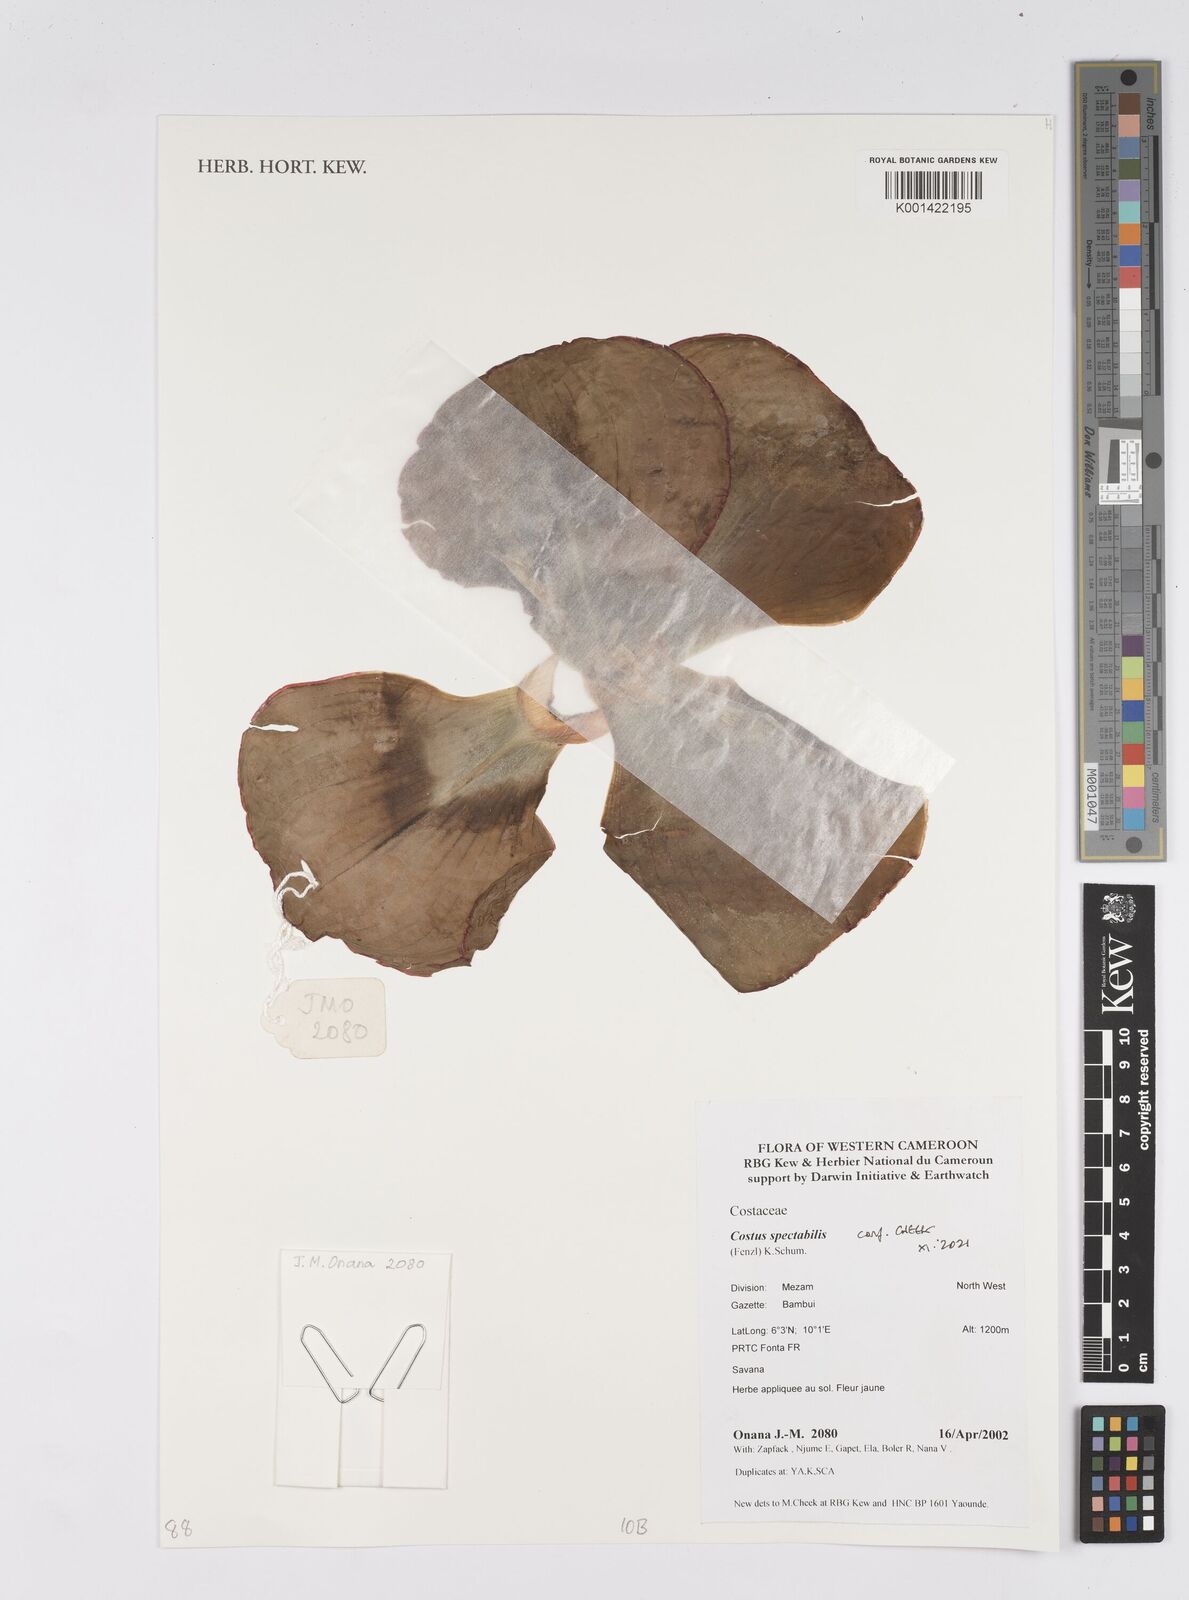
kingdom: Plantae
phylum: Tracheophyta
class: Liliopsida
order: Zingiberales
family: Costaceae
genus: Costus
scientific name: Costus spectabilis
